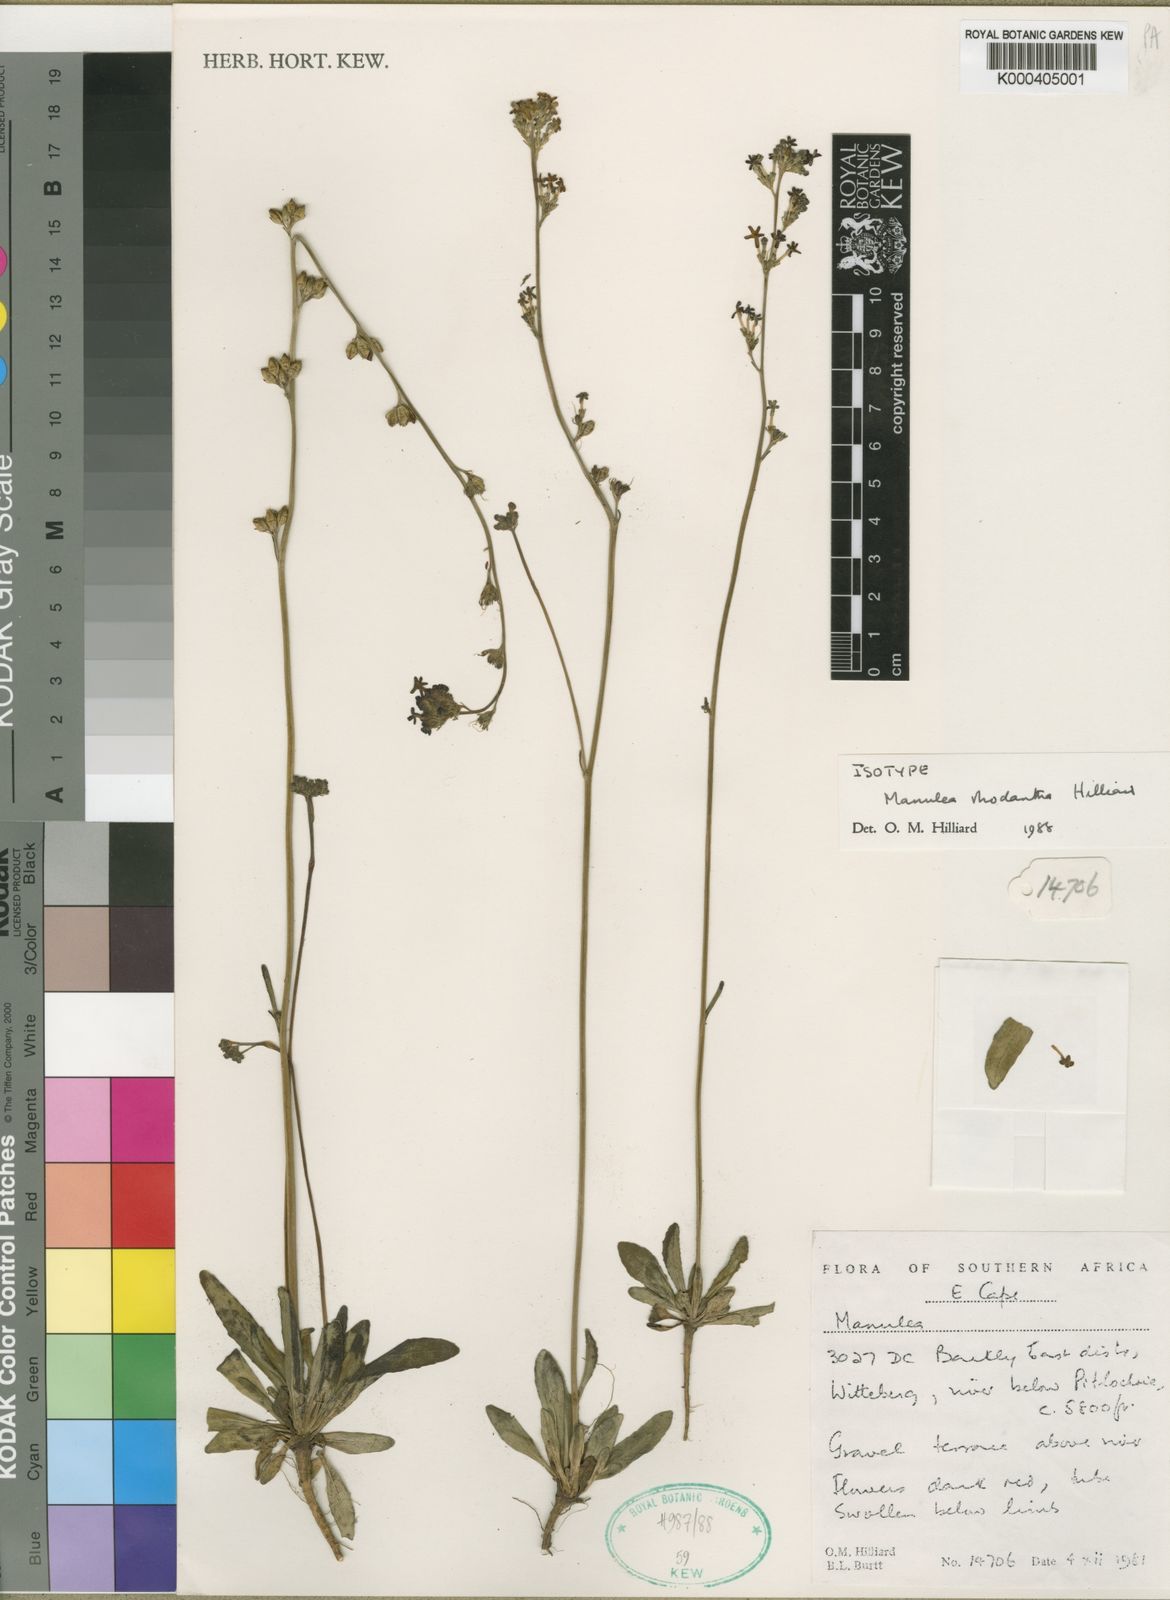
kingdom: Plantae
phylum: Tracheophyta
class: Magnoliopsida
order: Lamiales
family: Scrophulariaceae
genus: Manulea
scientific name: Manulea rhodantha
